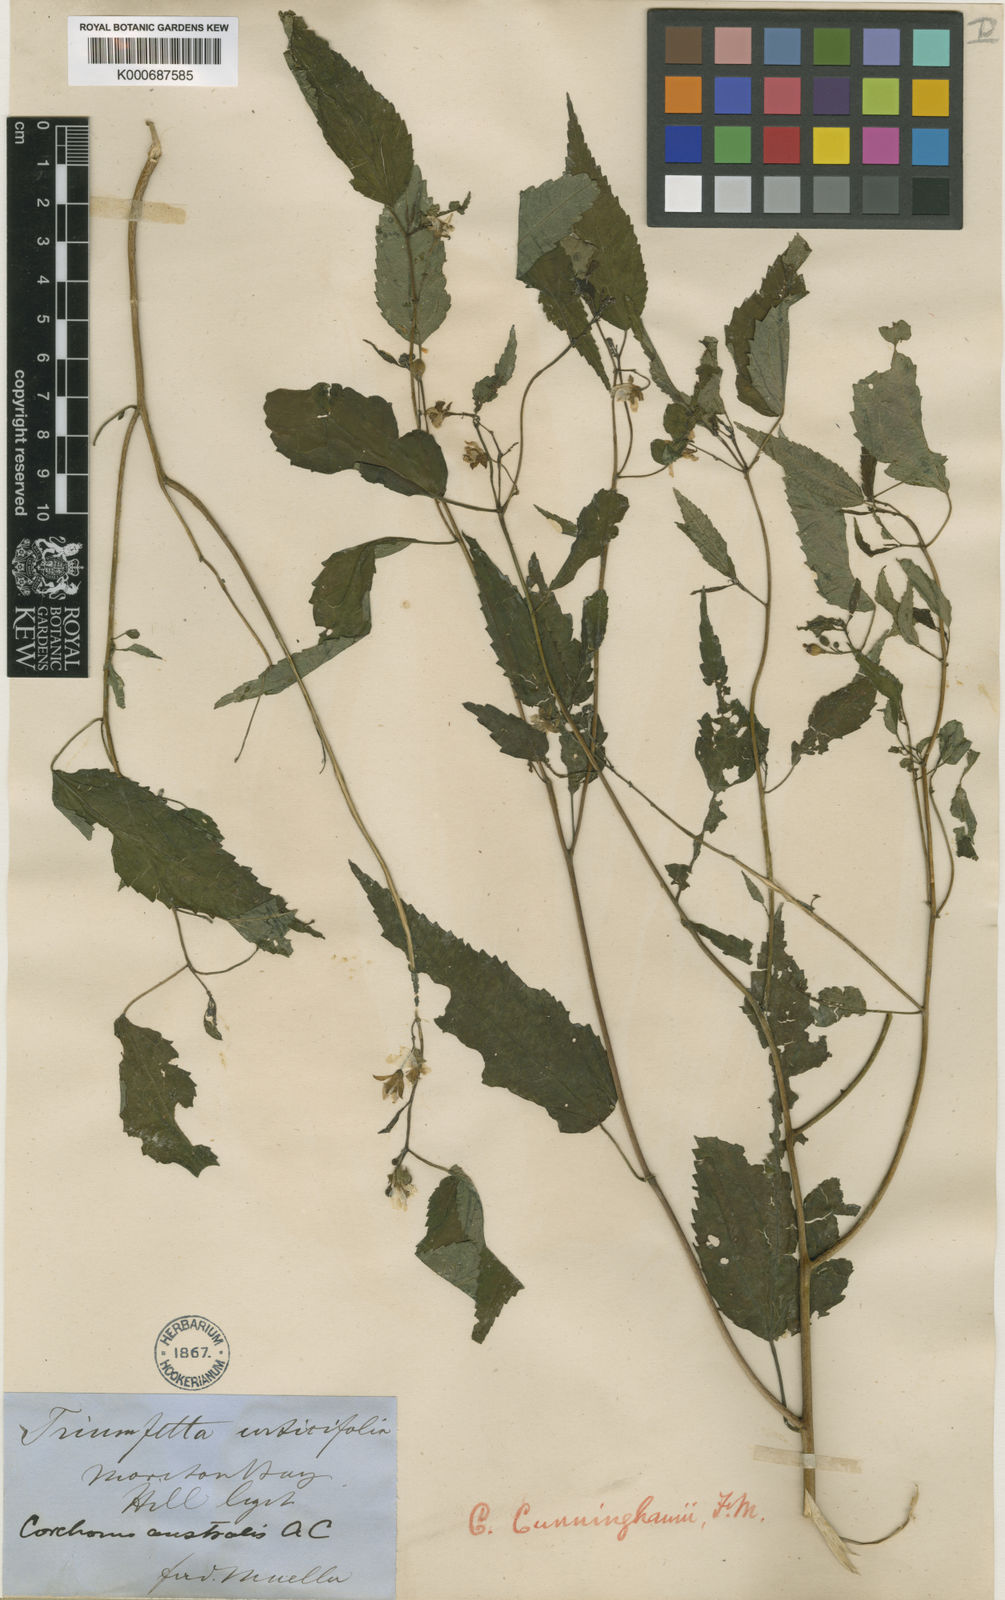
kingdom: Plantae
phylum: Tracheophyta
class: Magnoliopsida
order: Malvales
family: Malvaceae
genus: Corchorus
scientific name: Corchorus cunninghamii
